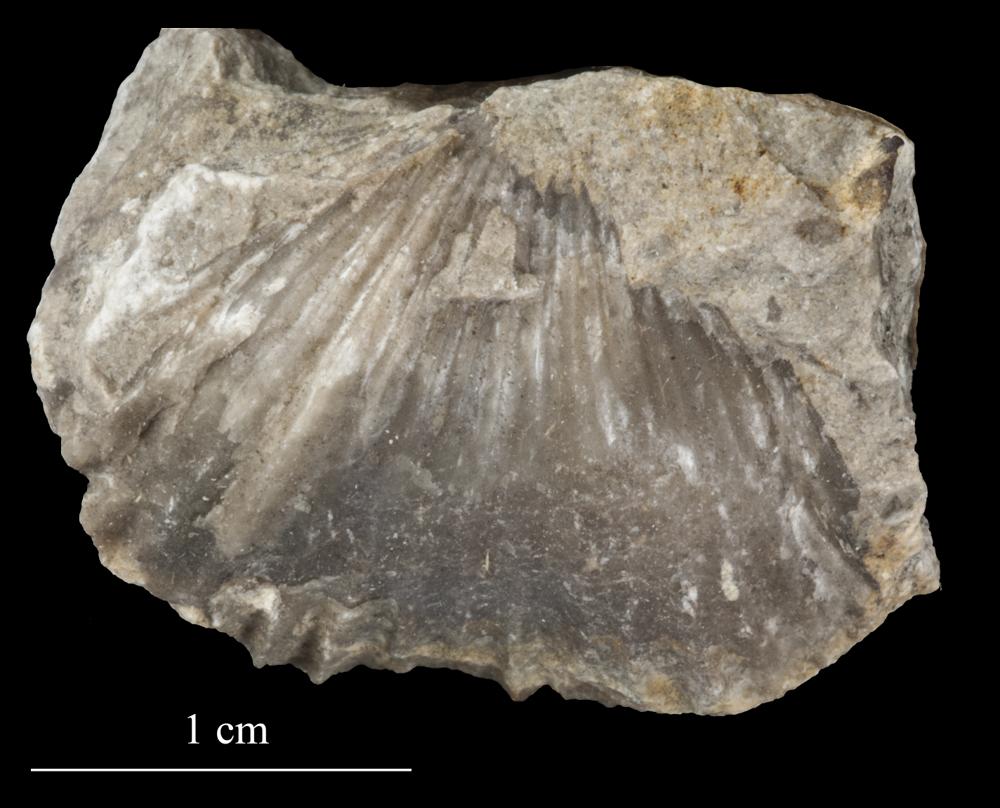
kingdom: Animalia
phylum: Brachiopoda
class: Rhynchonellata
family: Plectorthidae
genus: Platystrophia
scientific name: Platystrophia Terebratulites biforatus
